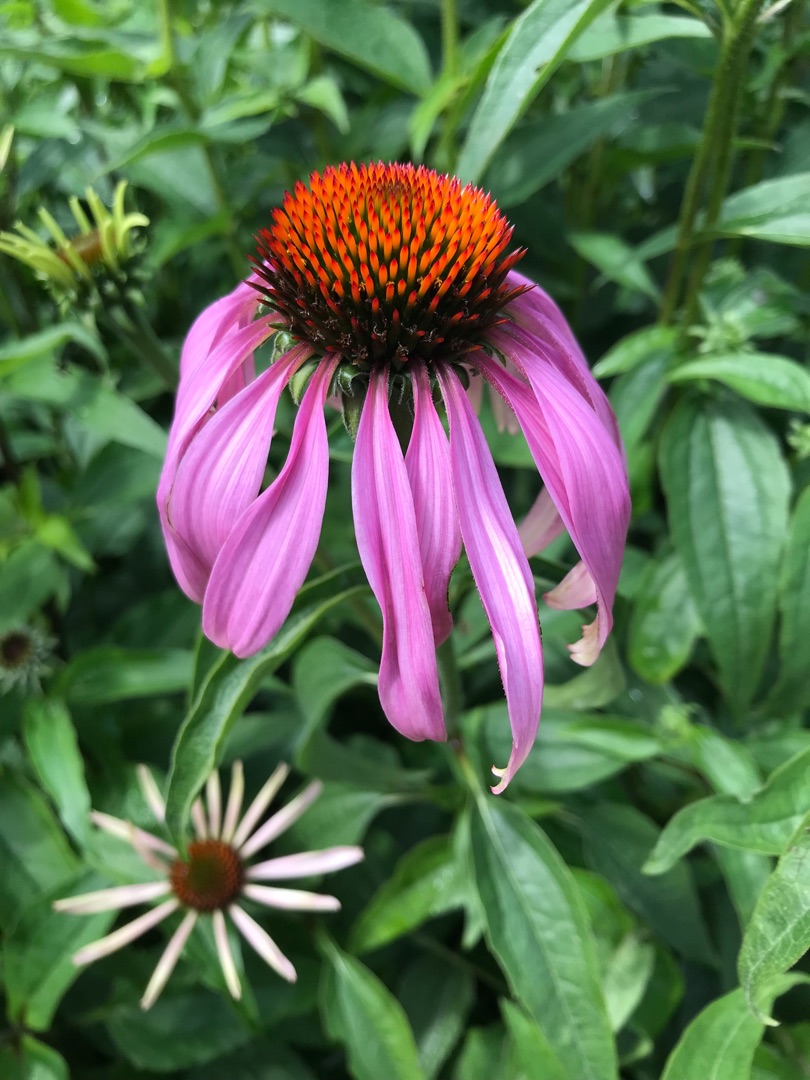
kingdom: Plantae
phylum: Tracheophyta
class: Magnoliopsida
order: Asterales
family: Asteraceae
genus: Echinacea
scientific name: Echinacea purpurea
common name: Have-purpursolhat
